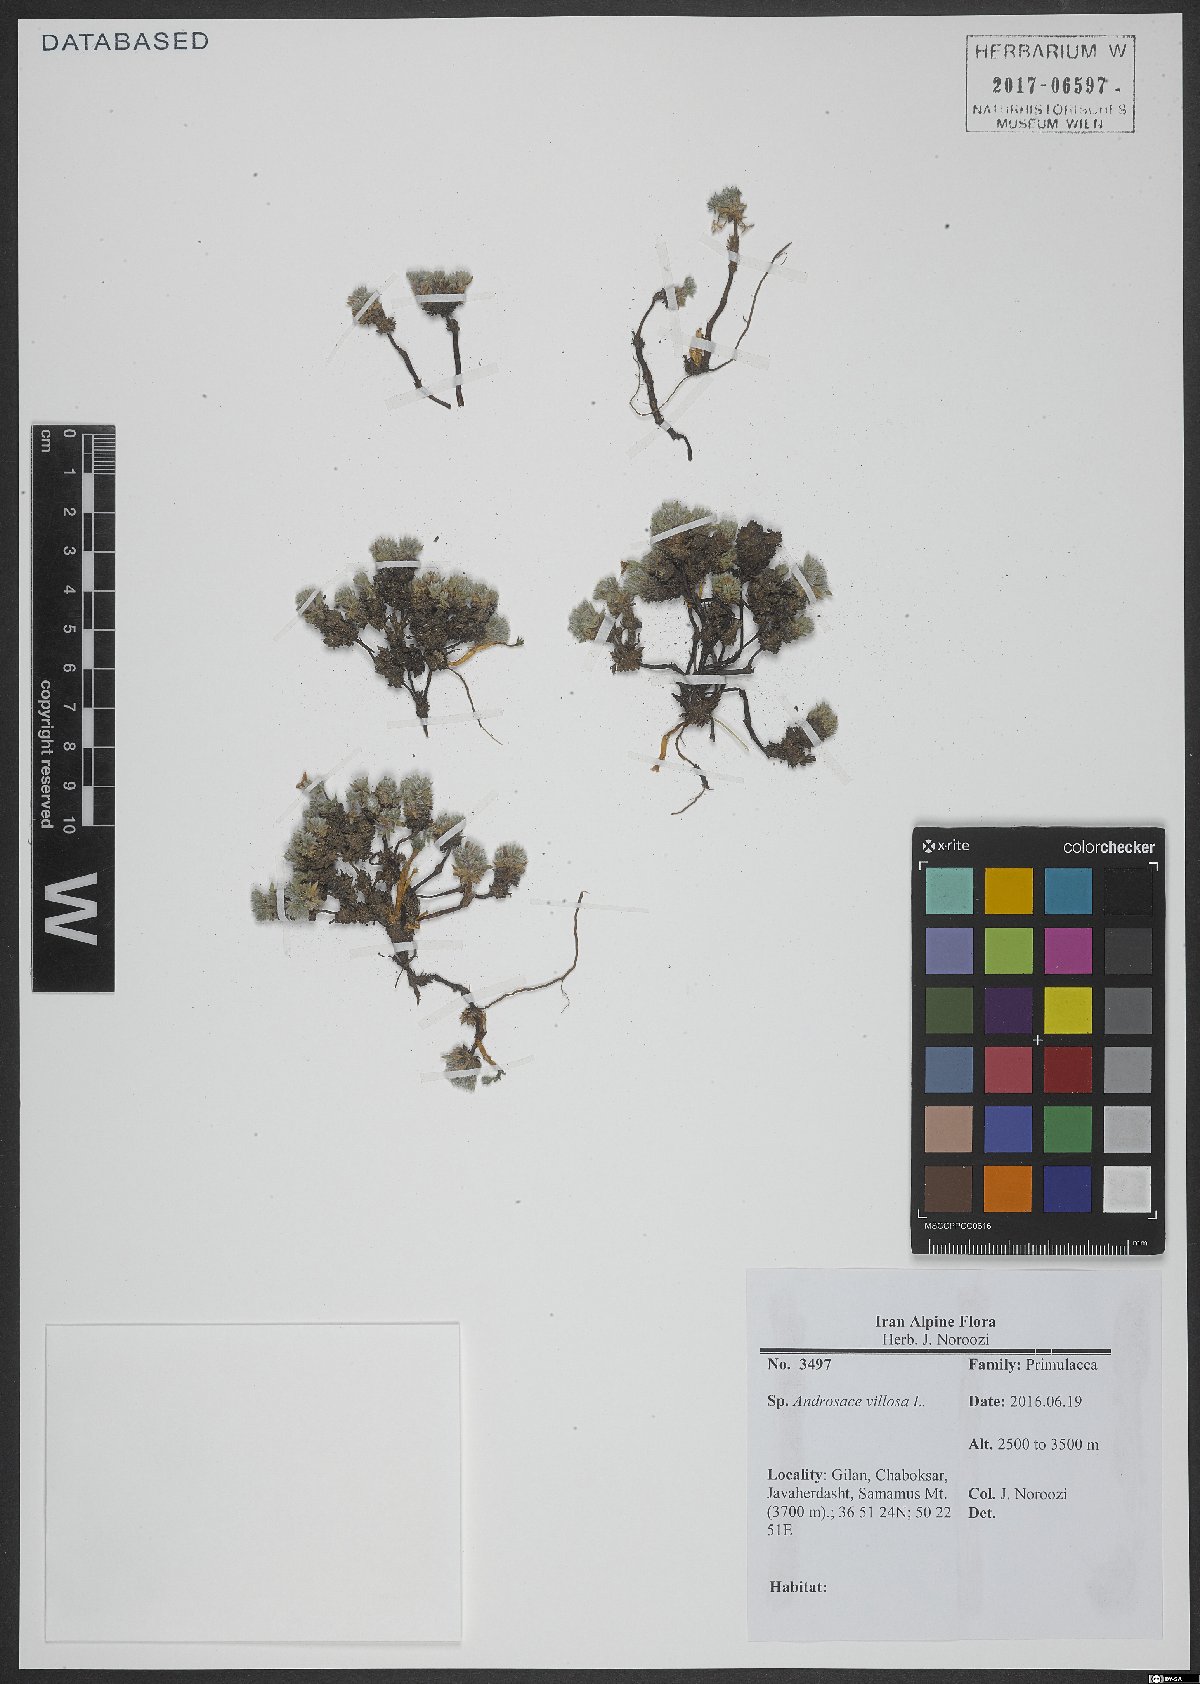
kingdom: Plantae
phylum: Tracheophyta
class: Magnoliopsida
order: Ericales
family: Primulaceae
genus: Androsace
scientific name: Androsace villosa
